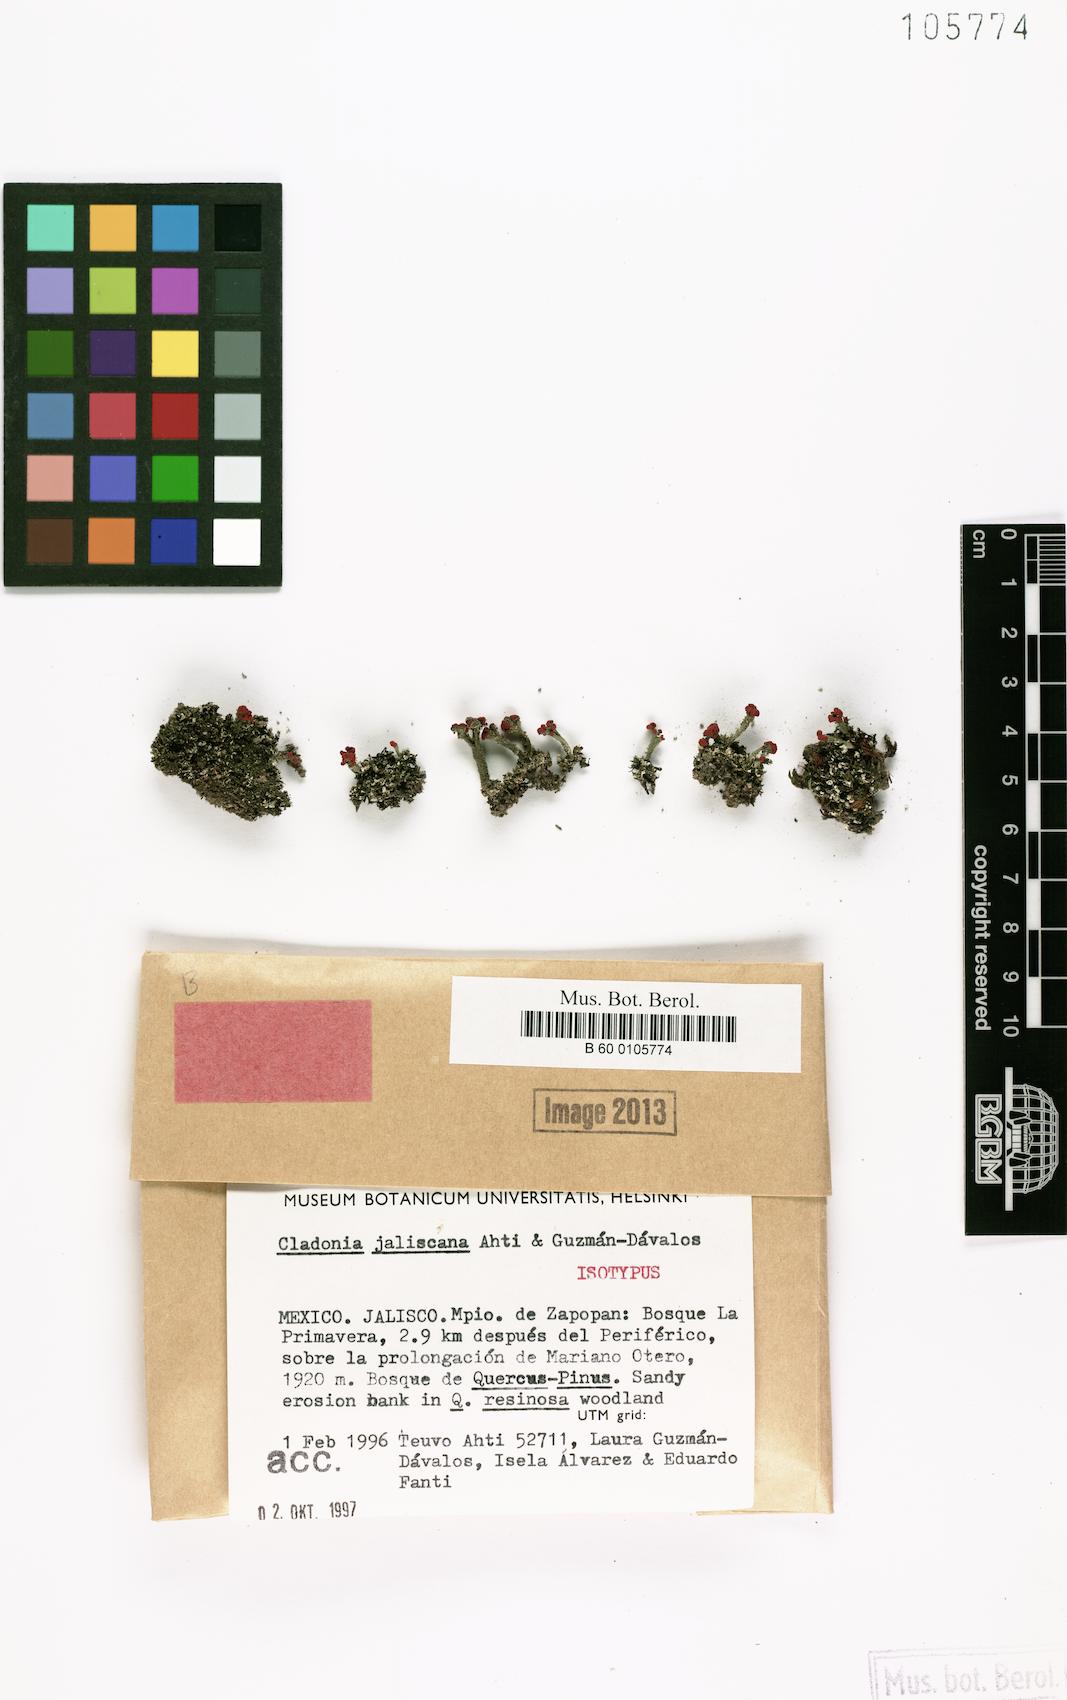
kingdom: Fungi
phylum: Ascomycota
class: Lecanoromycetes
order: Lecanorales
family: Cladoniaceae
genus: Cladonia
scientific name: Cladonia
